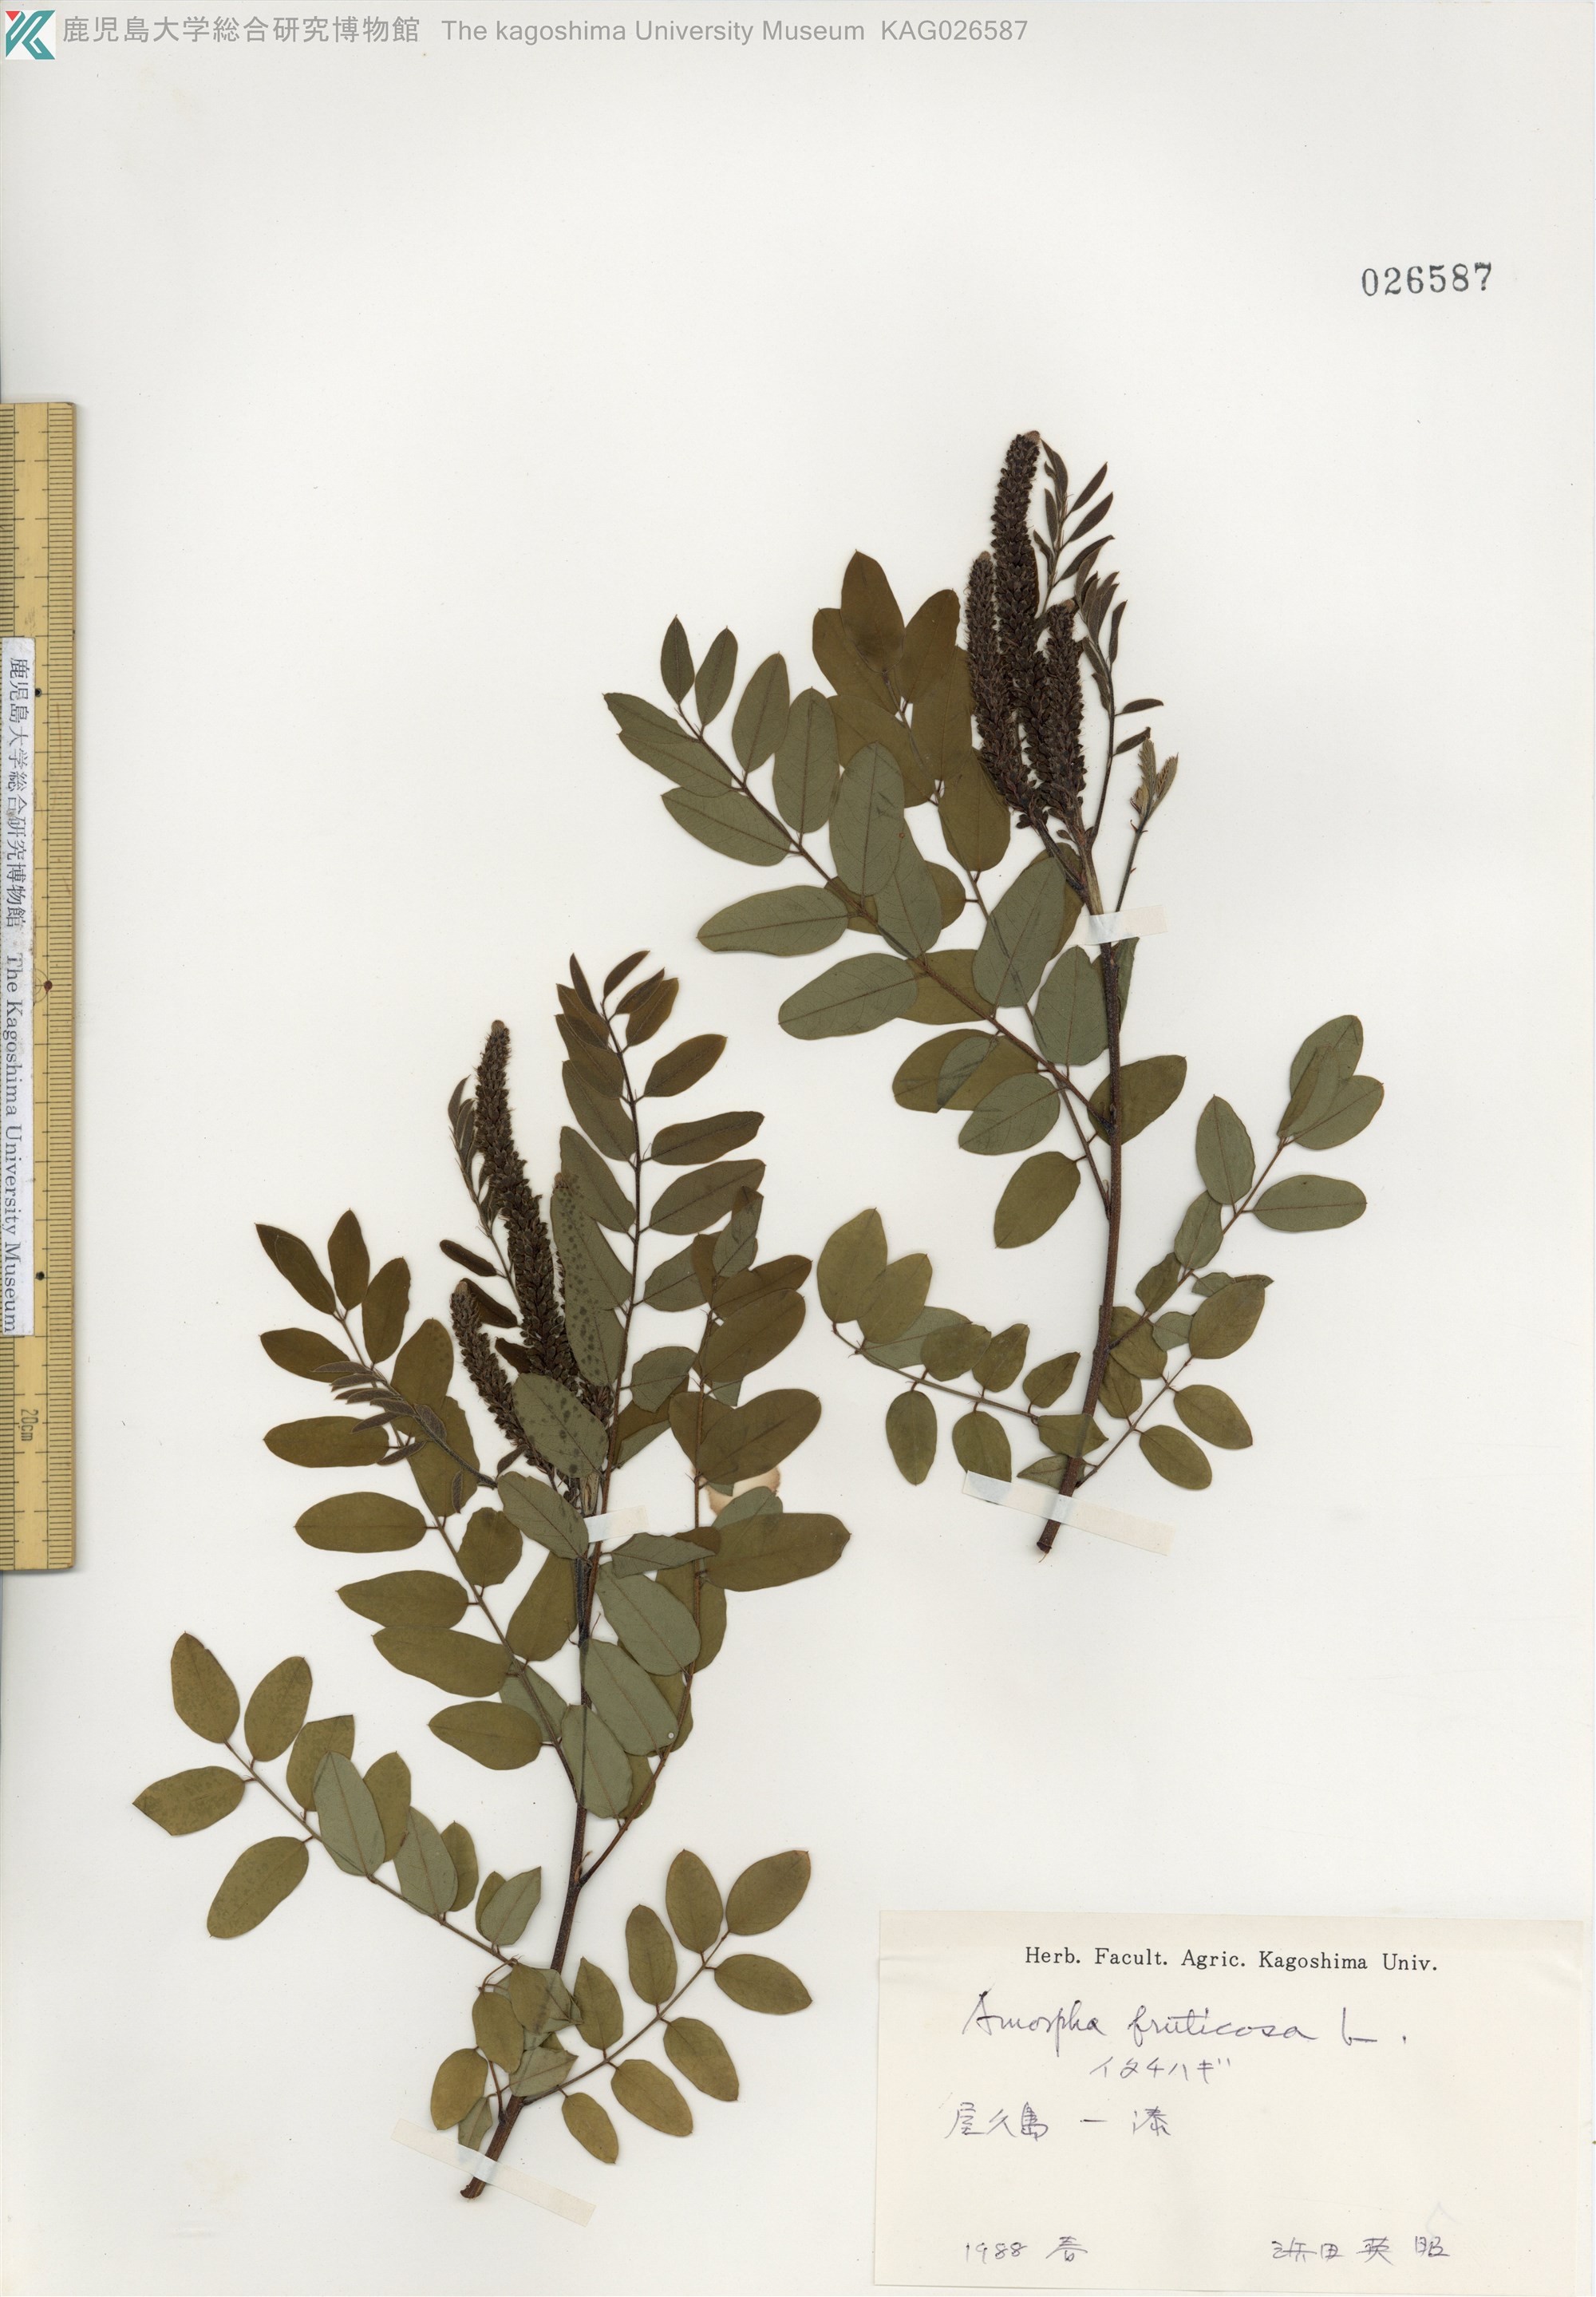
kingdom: Plantae
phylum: Tracheophyta
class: Magnoliopsida
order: Fabales
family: Fabaceae
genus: Amorpha
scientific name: Amorpha fruticosa
